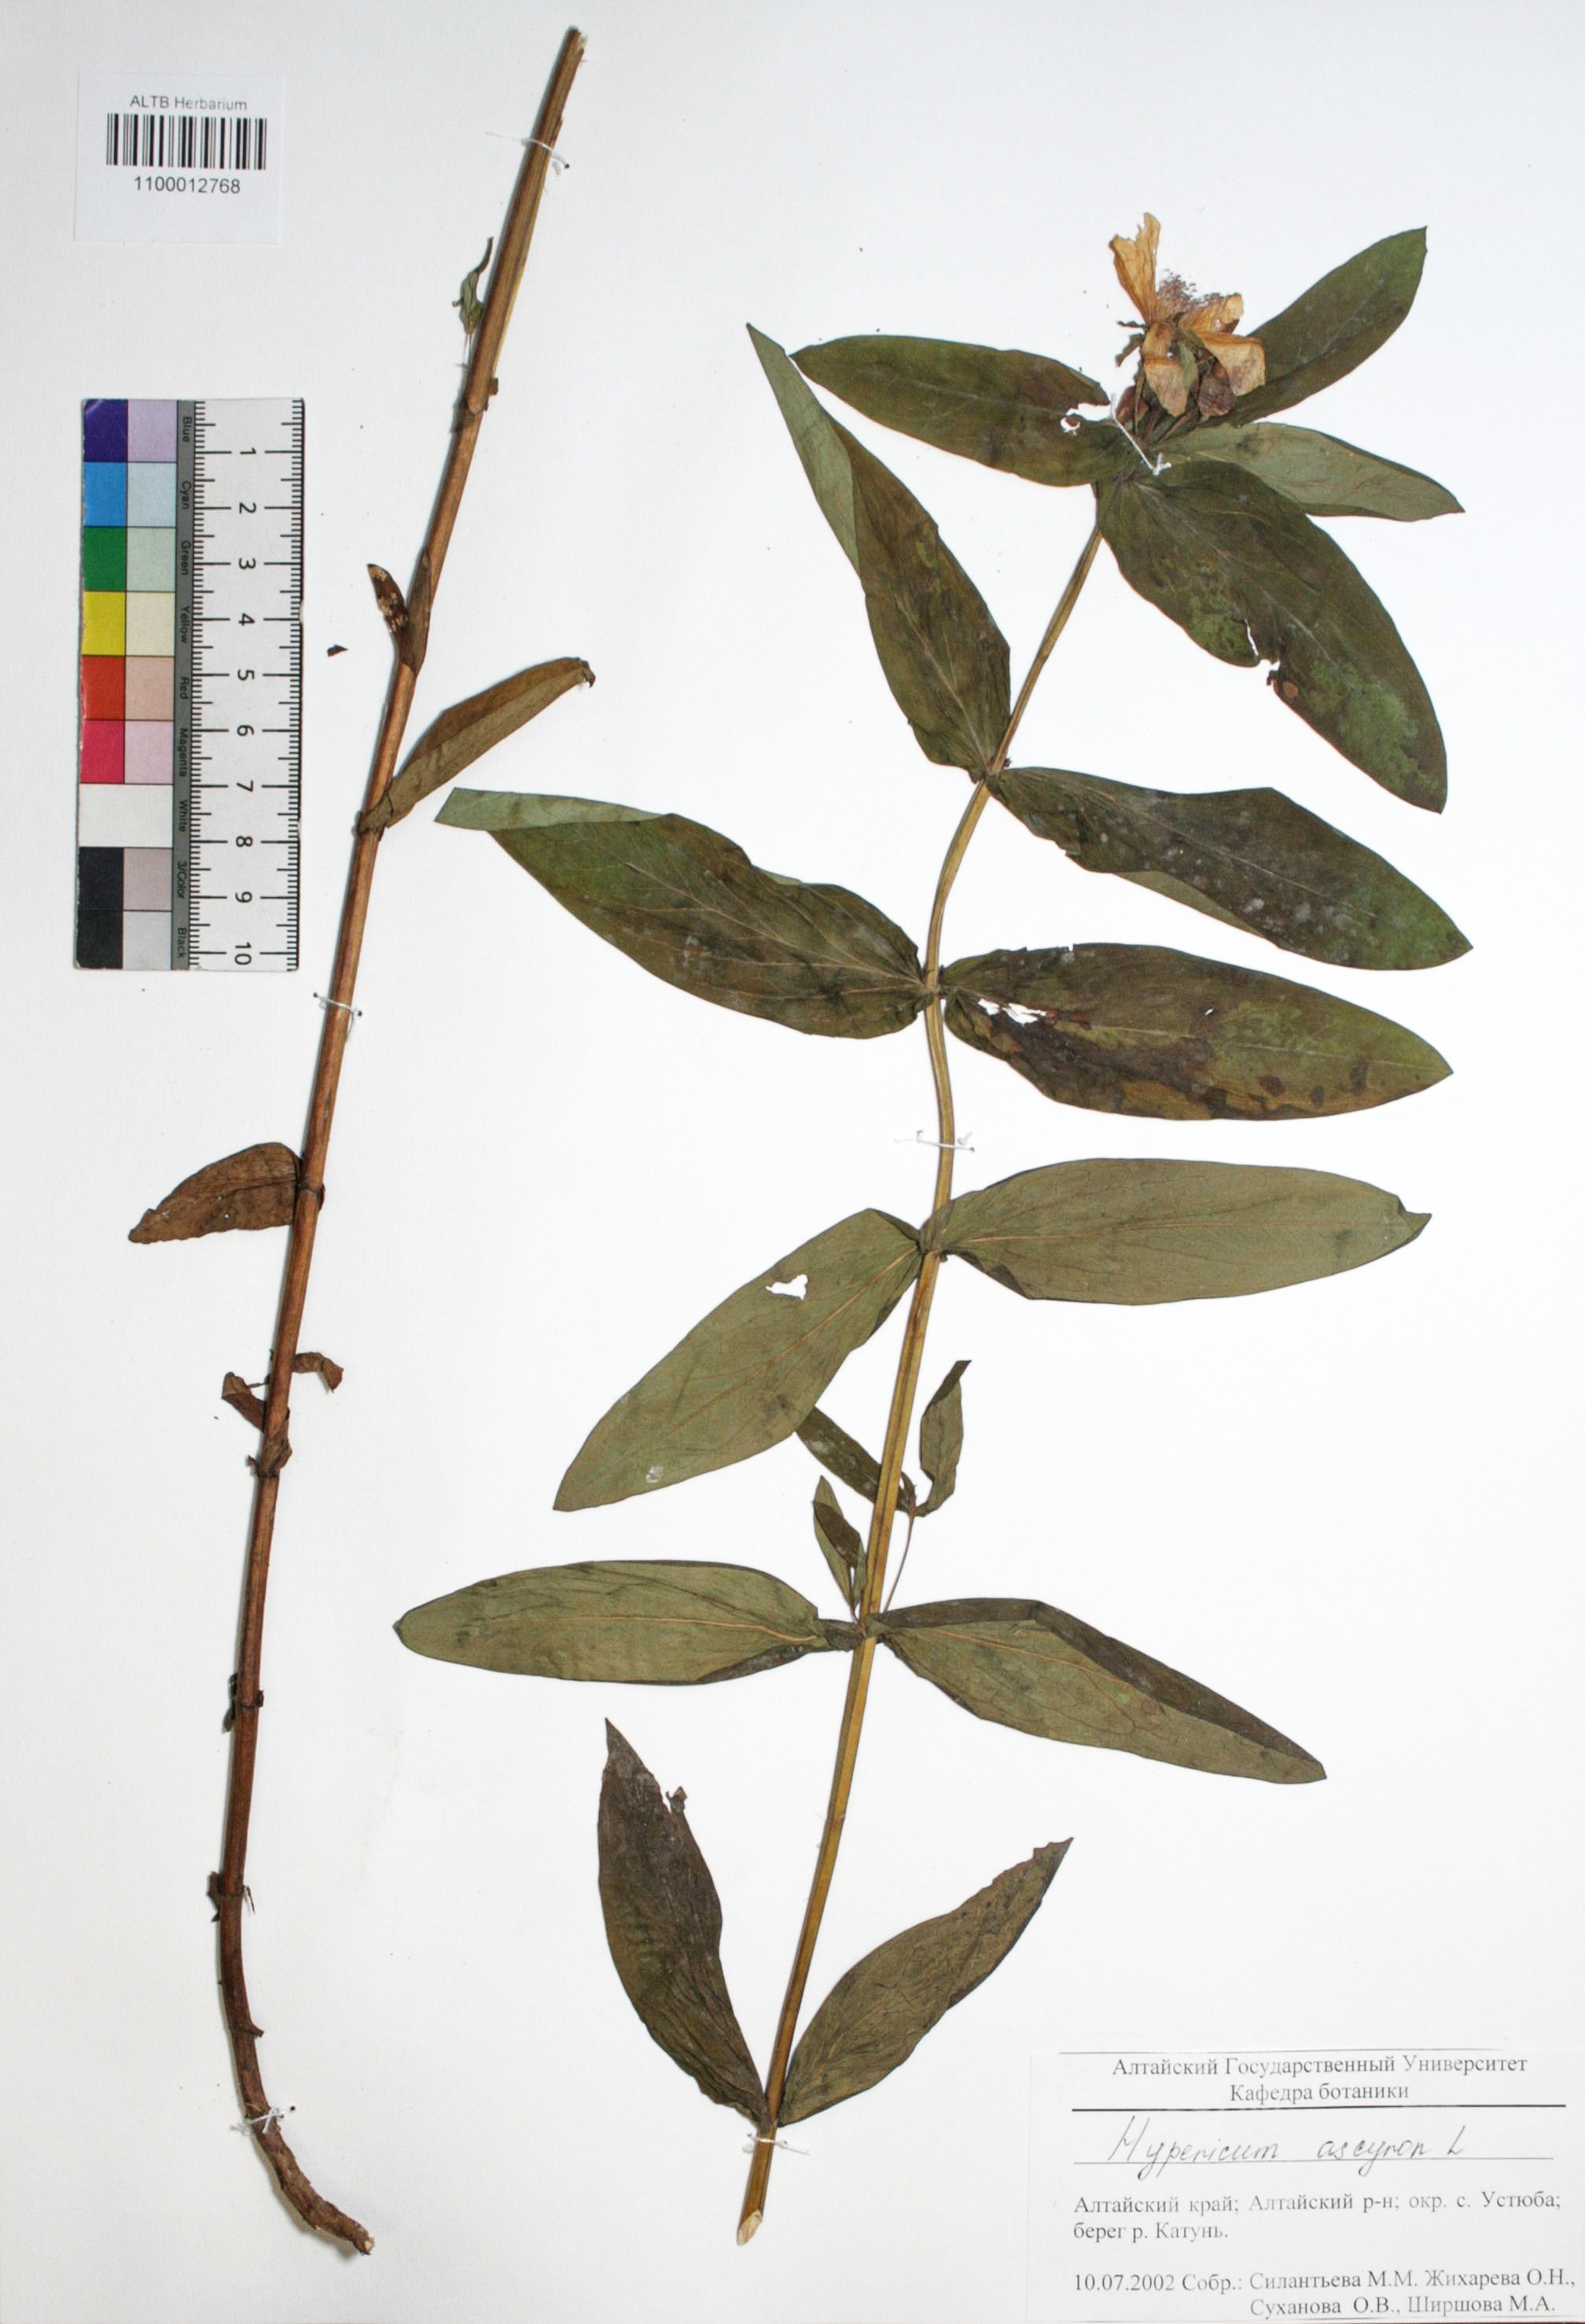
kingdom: Plantae
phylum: Tracheophyta
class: Magnoliopsida
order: Malpighiales
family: Hypericaceae
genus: Hypericum
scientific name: Hypericum ascyron
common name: Giant st. john's-wort
